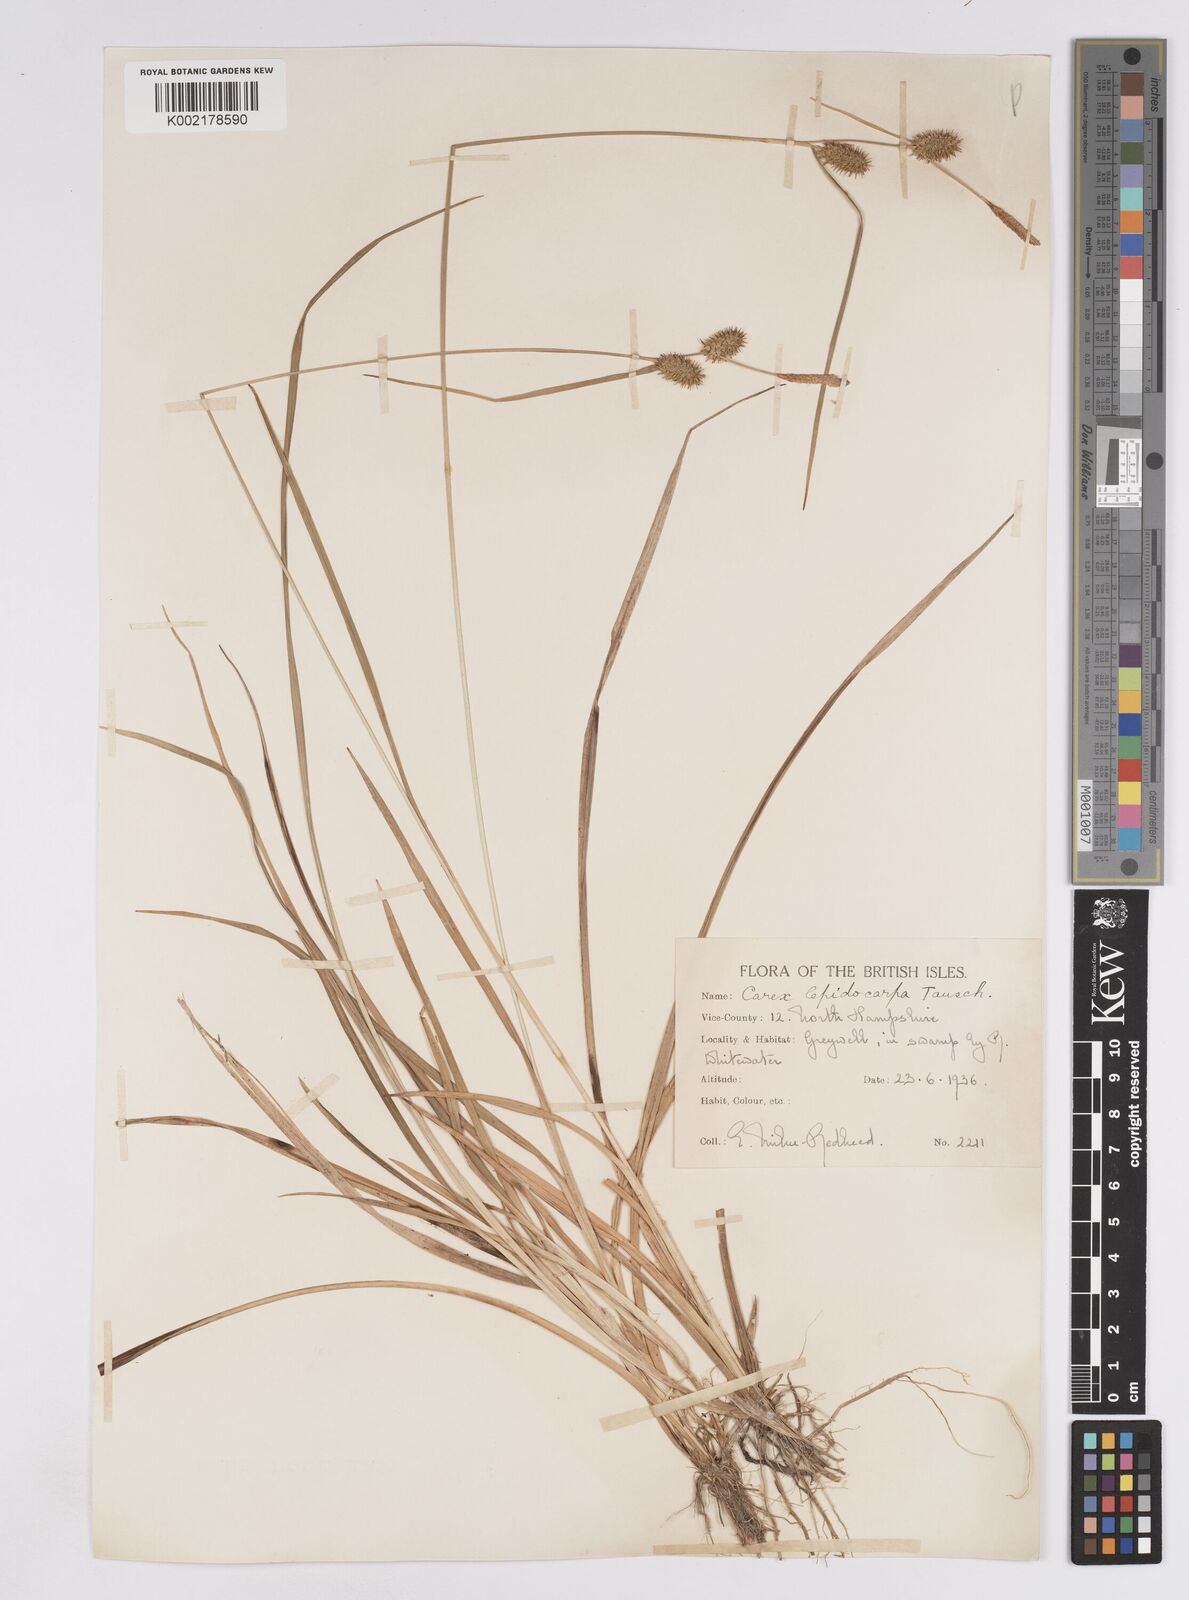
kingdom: Plantae
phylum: Tracheophyta
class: Liliopsida
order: Poales
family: Cyperaceae
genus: Carex
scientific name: Carex lepidocarpa
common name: Long-stalked yellow-sedge
